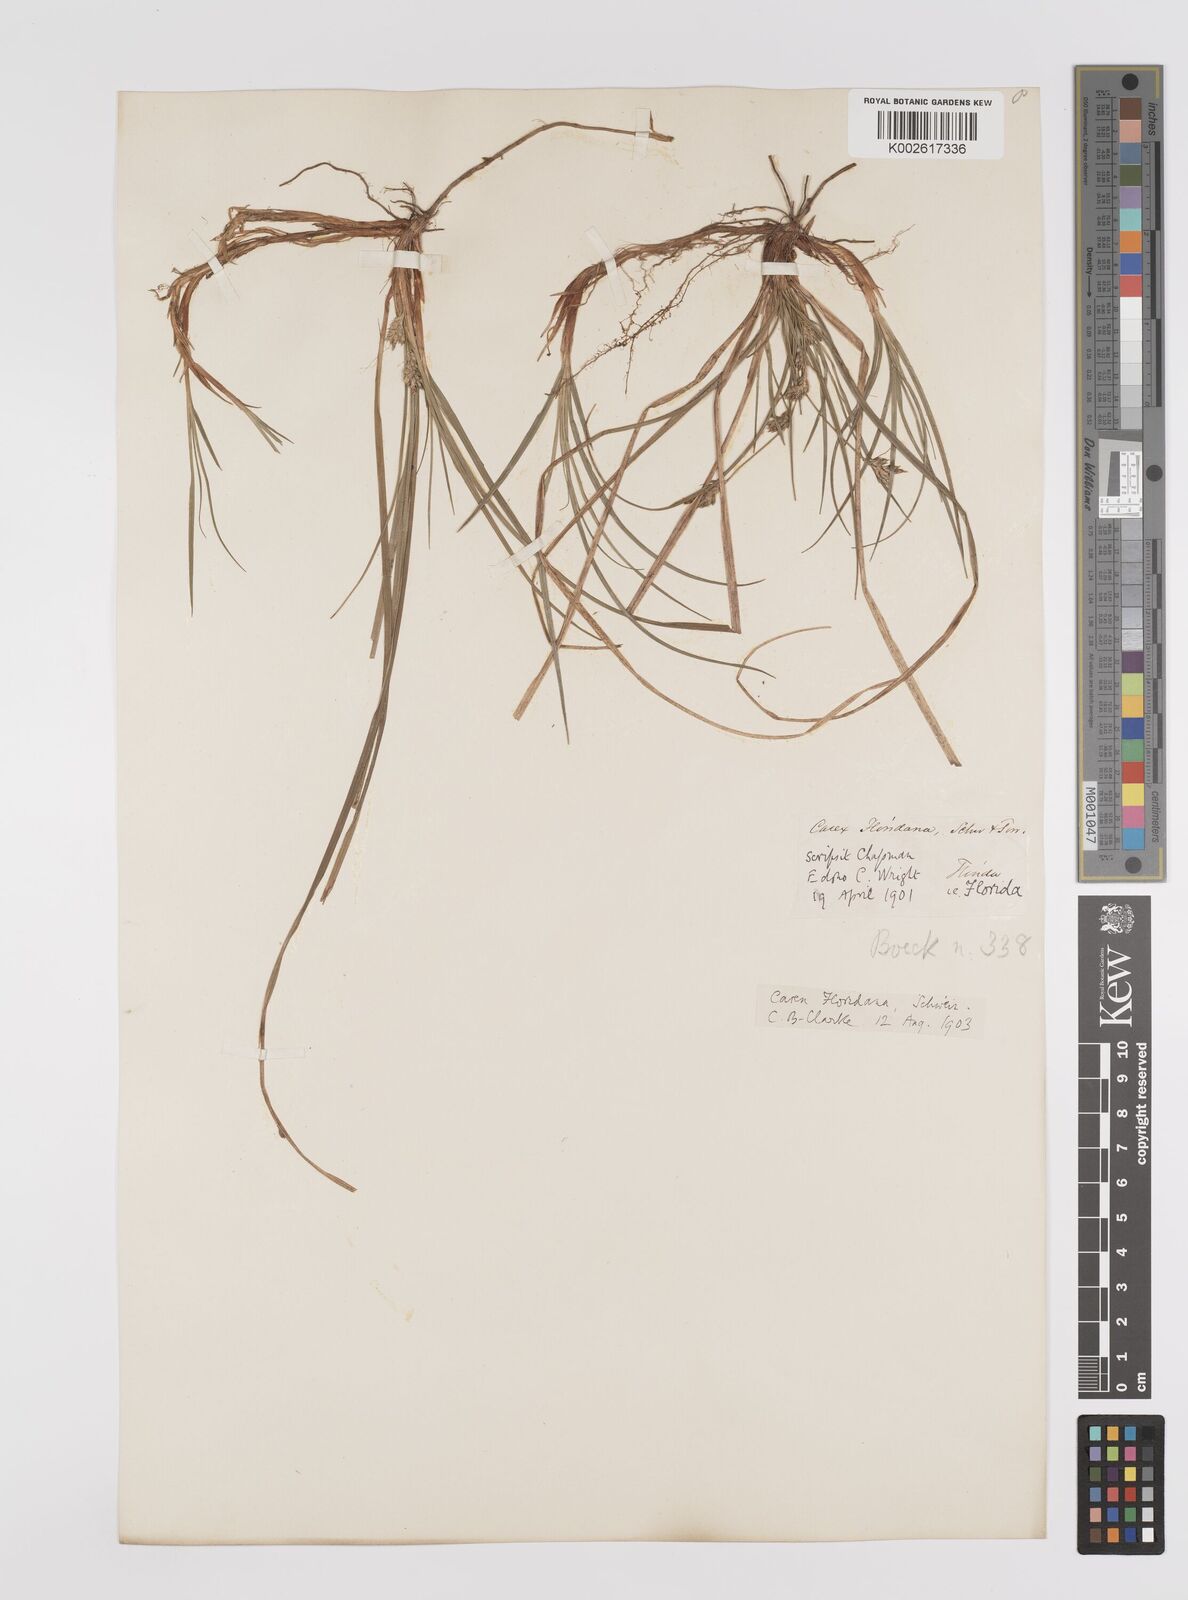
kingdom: Plantae
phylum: Tracheophyta
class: Liliopsida
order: Poales
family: Cyperaceae
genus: Carex
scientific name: Carex floridana
